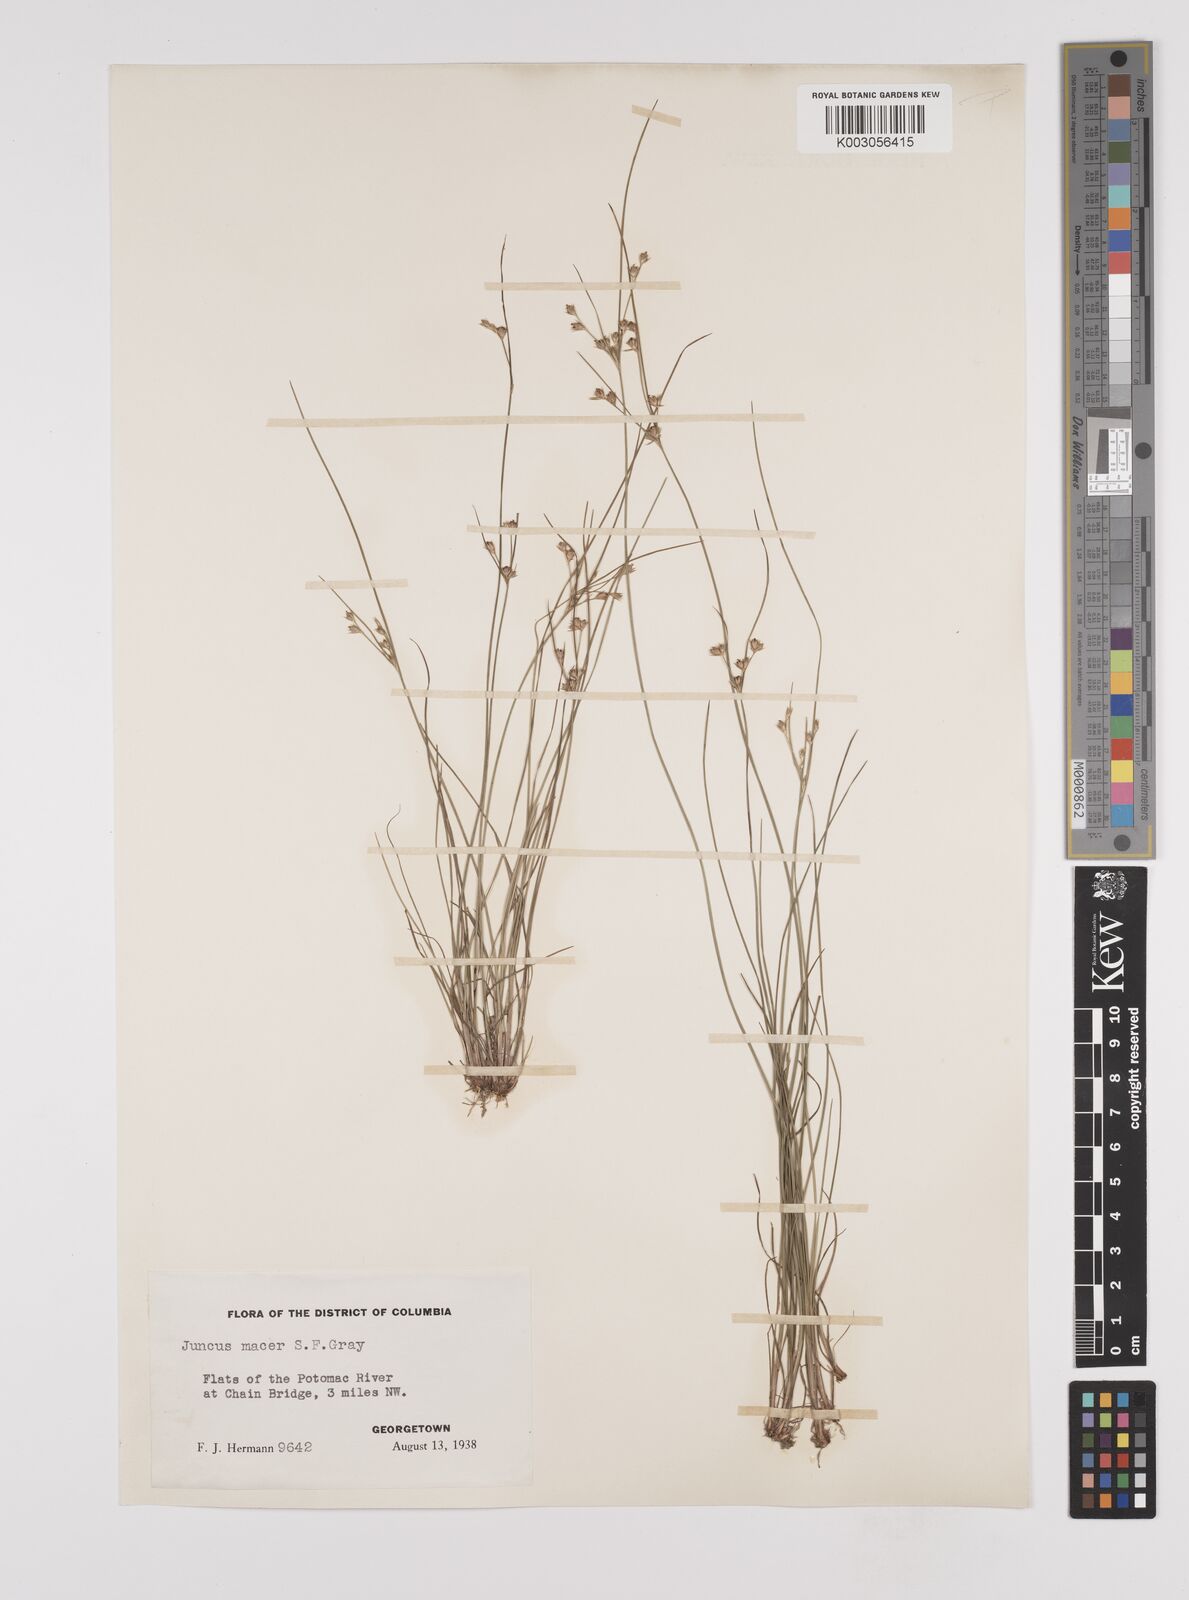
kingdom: Plantae
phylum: Tracheophyta
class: Liliopsida
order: Poales
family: Juncaceae
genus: Juncus
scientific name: Juncus tenuis
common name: Slender rush
